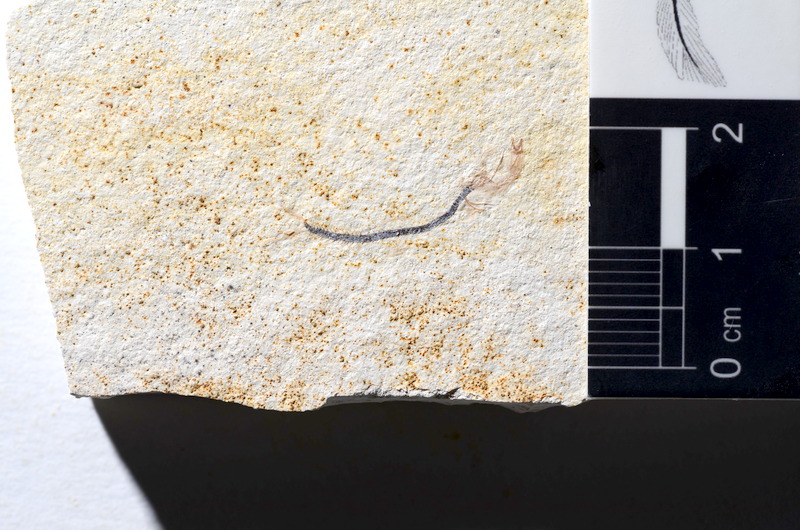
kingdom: Animalia
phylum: Chordata
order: Salmoniformes
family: Orthogonikleithridae
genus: Orthogonikleithrus
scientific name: Orthogonikleithrus hoelli
